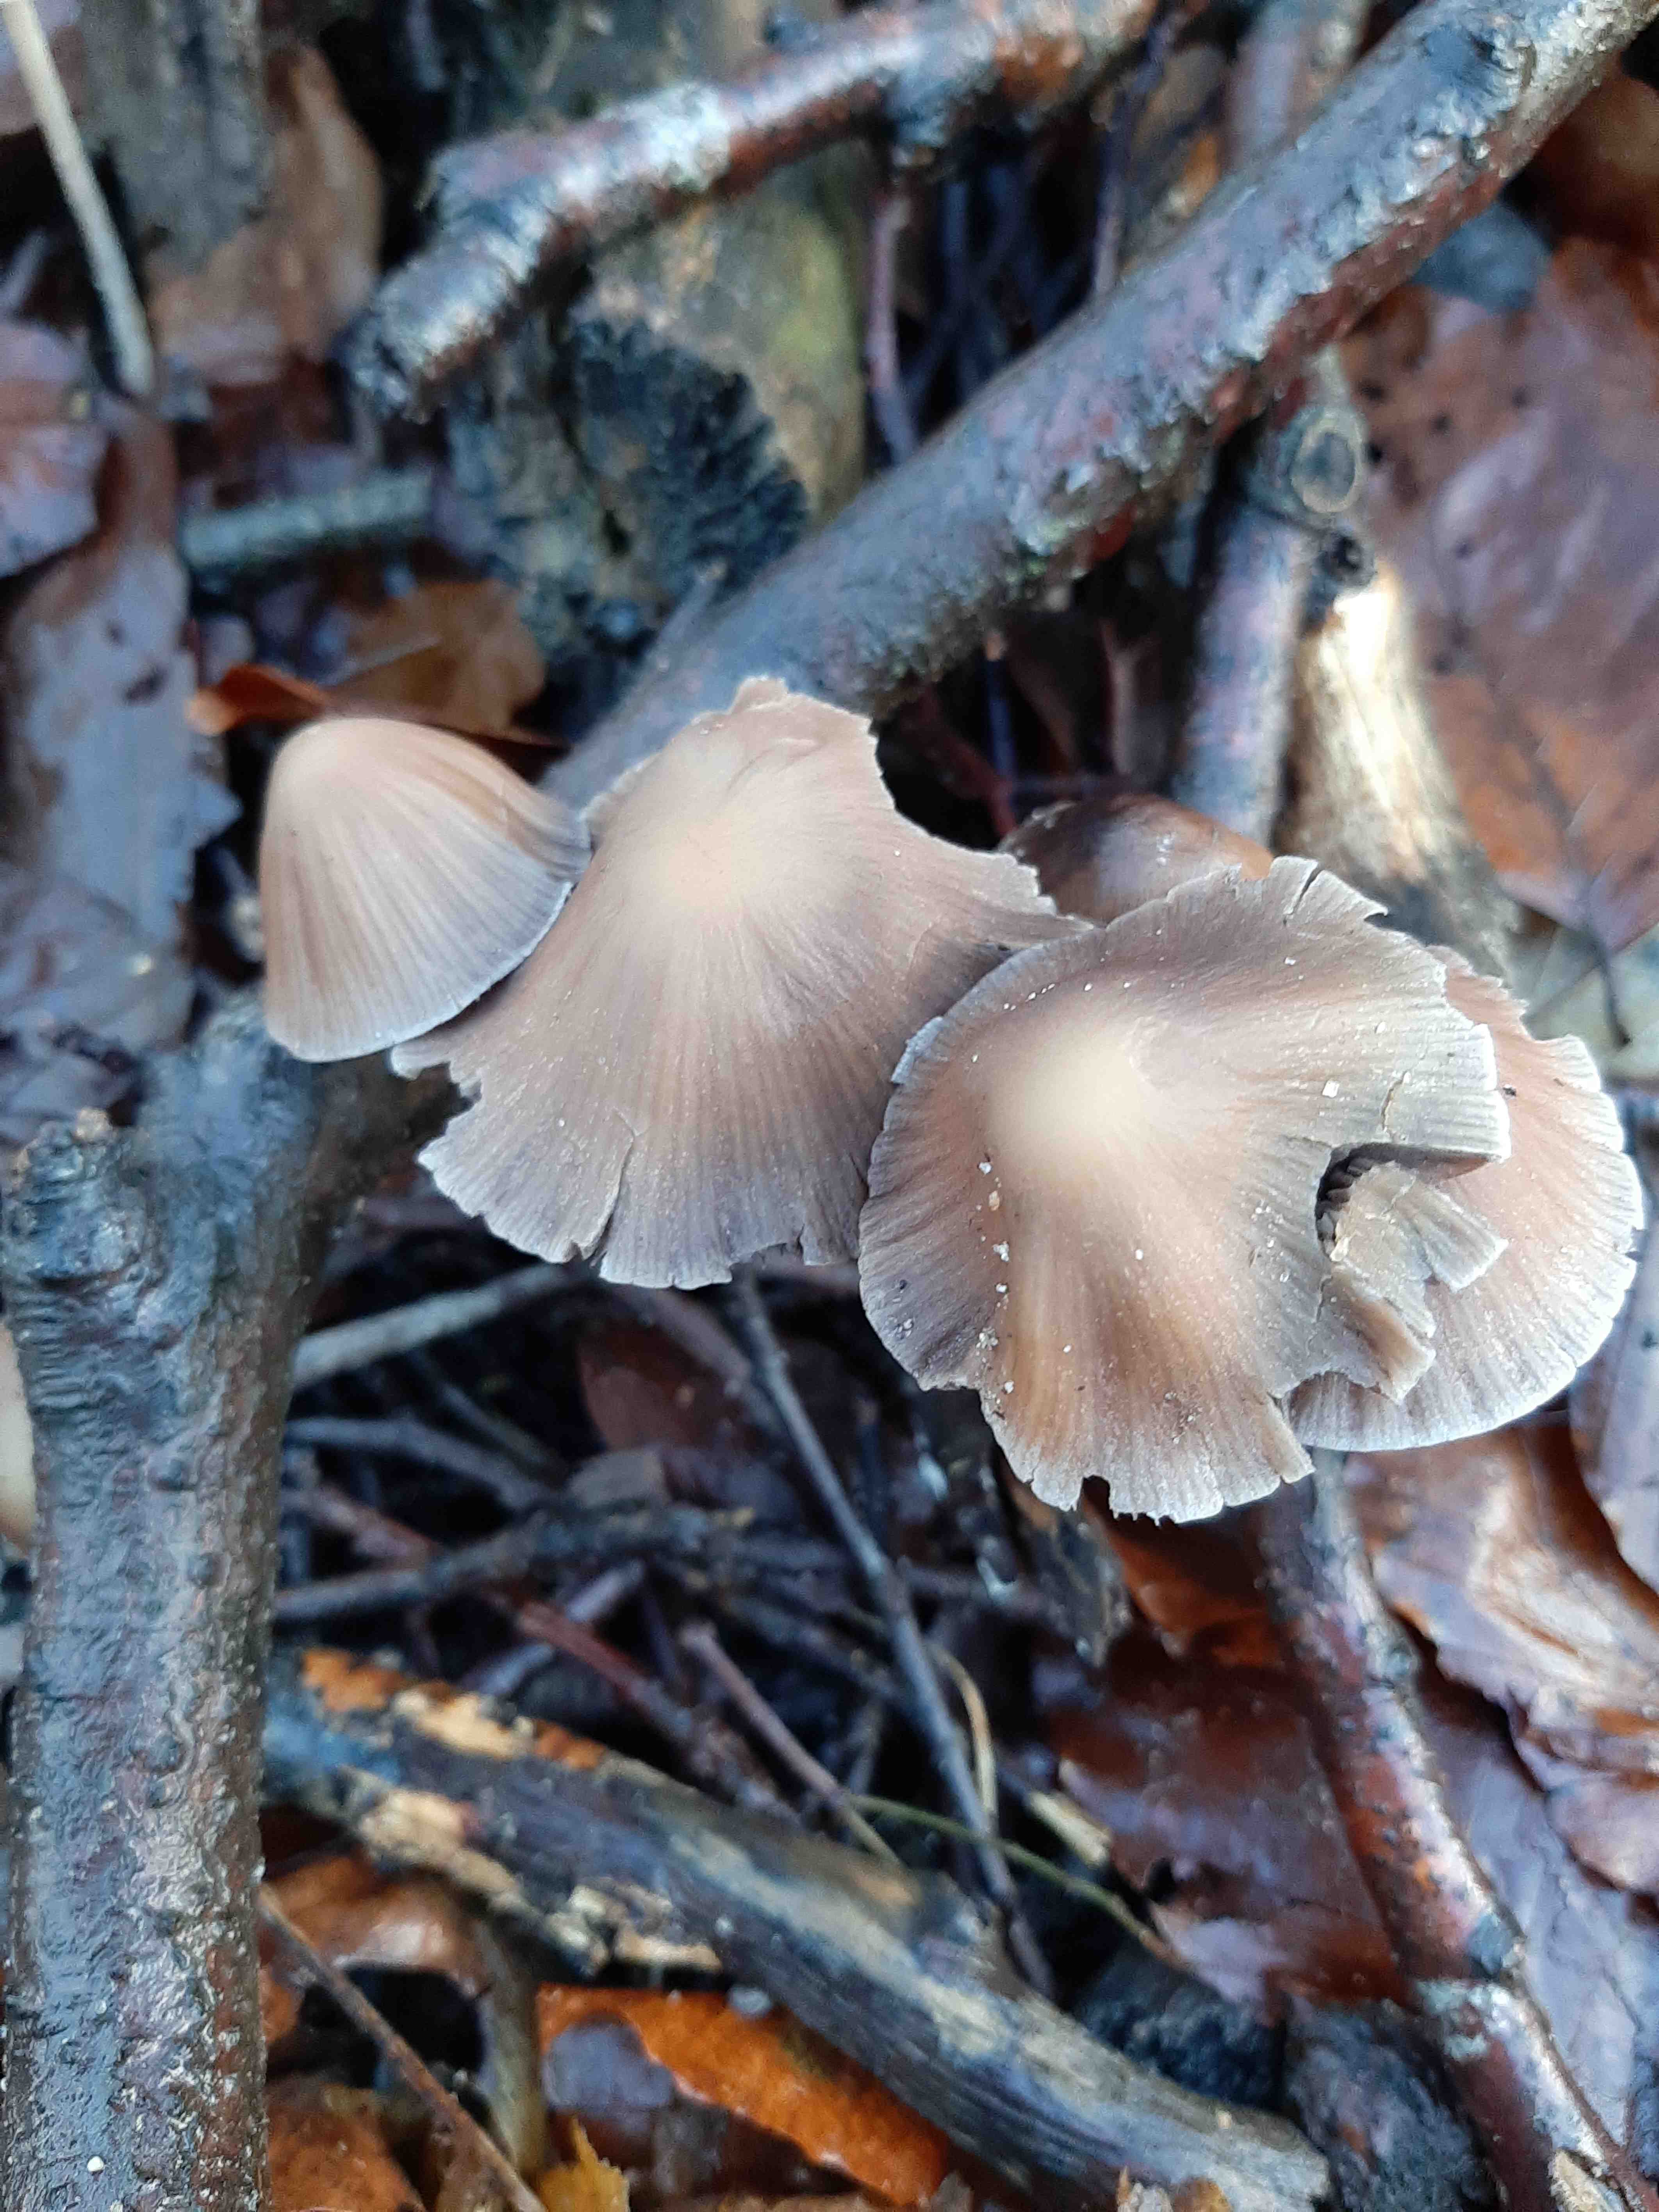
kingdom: Fungi
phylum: Basidiomycota
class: Agaricomycetes
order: Agaricales
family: Psathyrellaceae
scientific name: Psathyrellaceae
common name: mørkhatfamilien
